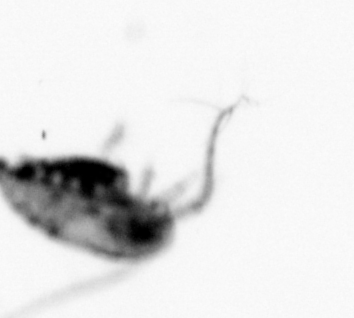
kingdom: Animalia
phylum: Arthropoda
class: Copepoda
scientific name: Copepoda
